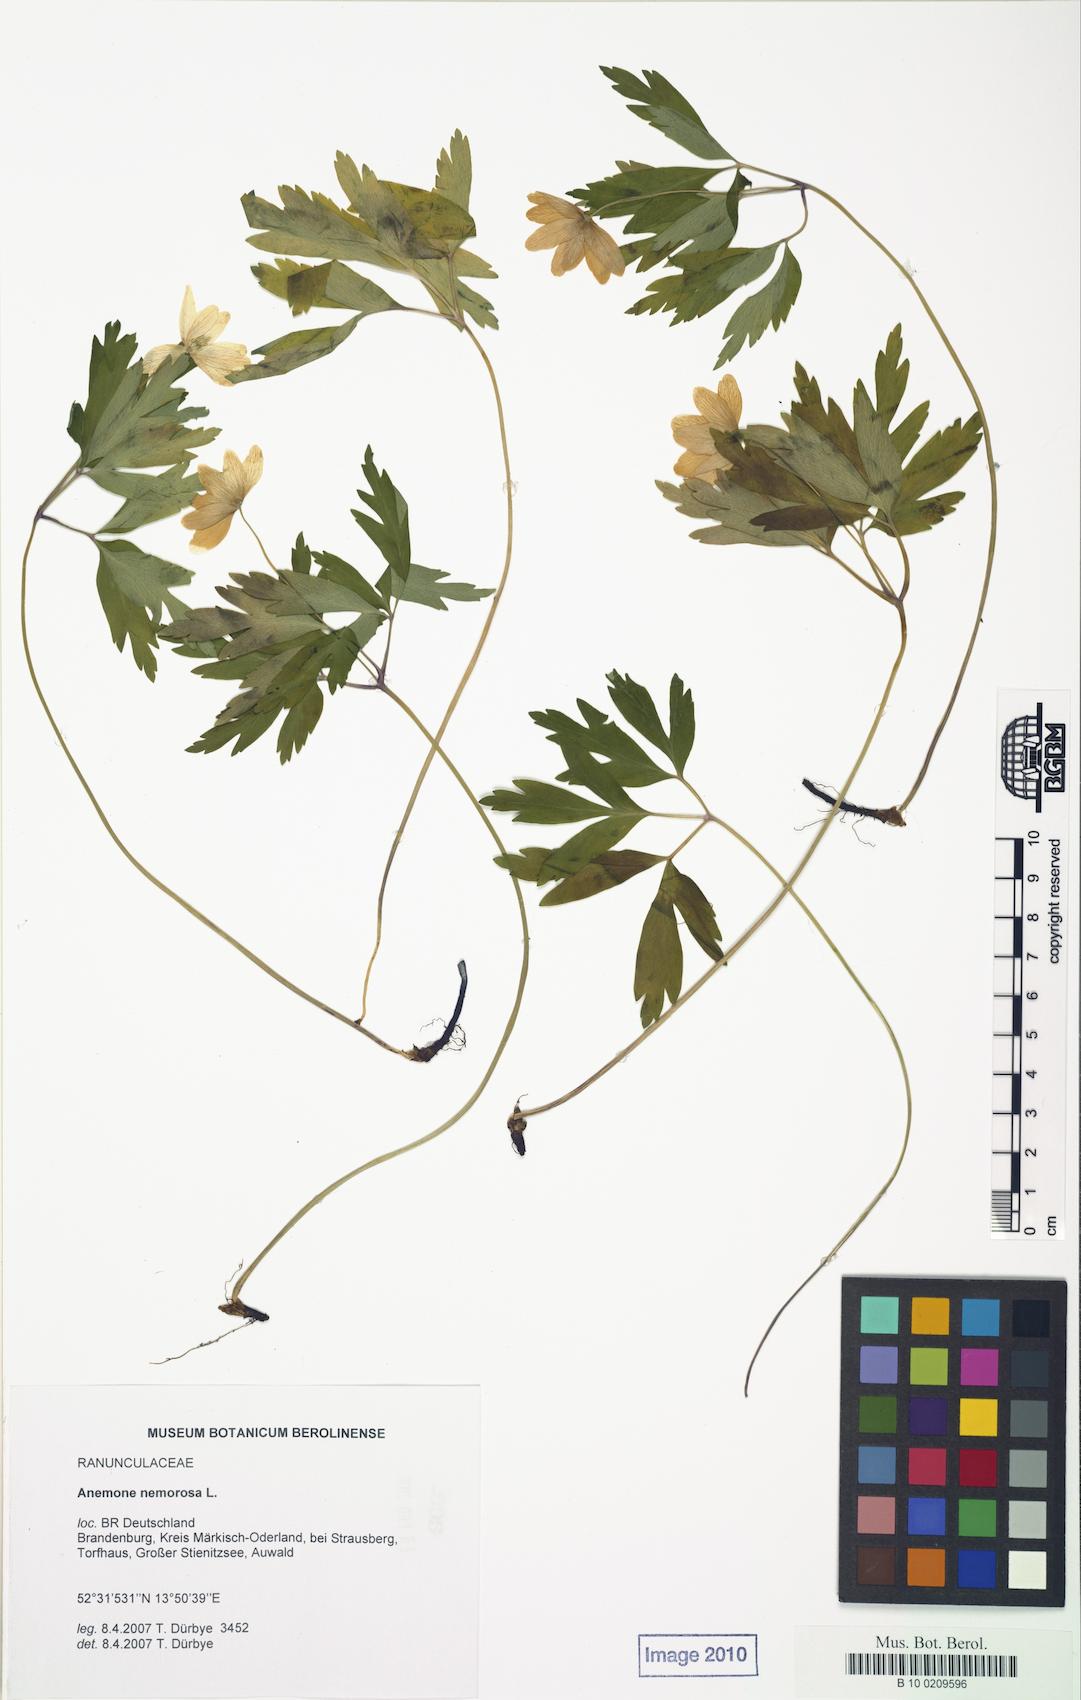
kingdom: Plantae
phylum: Tracheophyta
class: Magnoliopsida
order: Ranunculales
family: Ranunculaceae
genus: Anemone
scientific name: Anemone nemorosa
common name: Wood anemone
